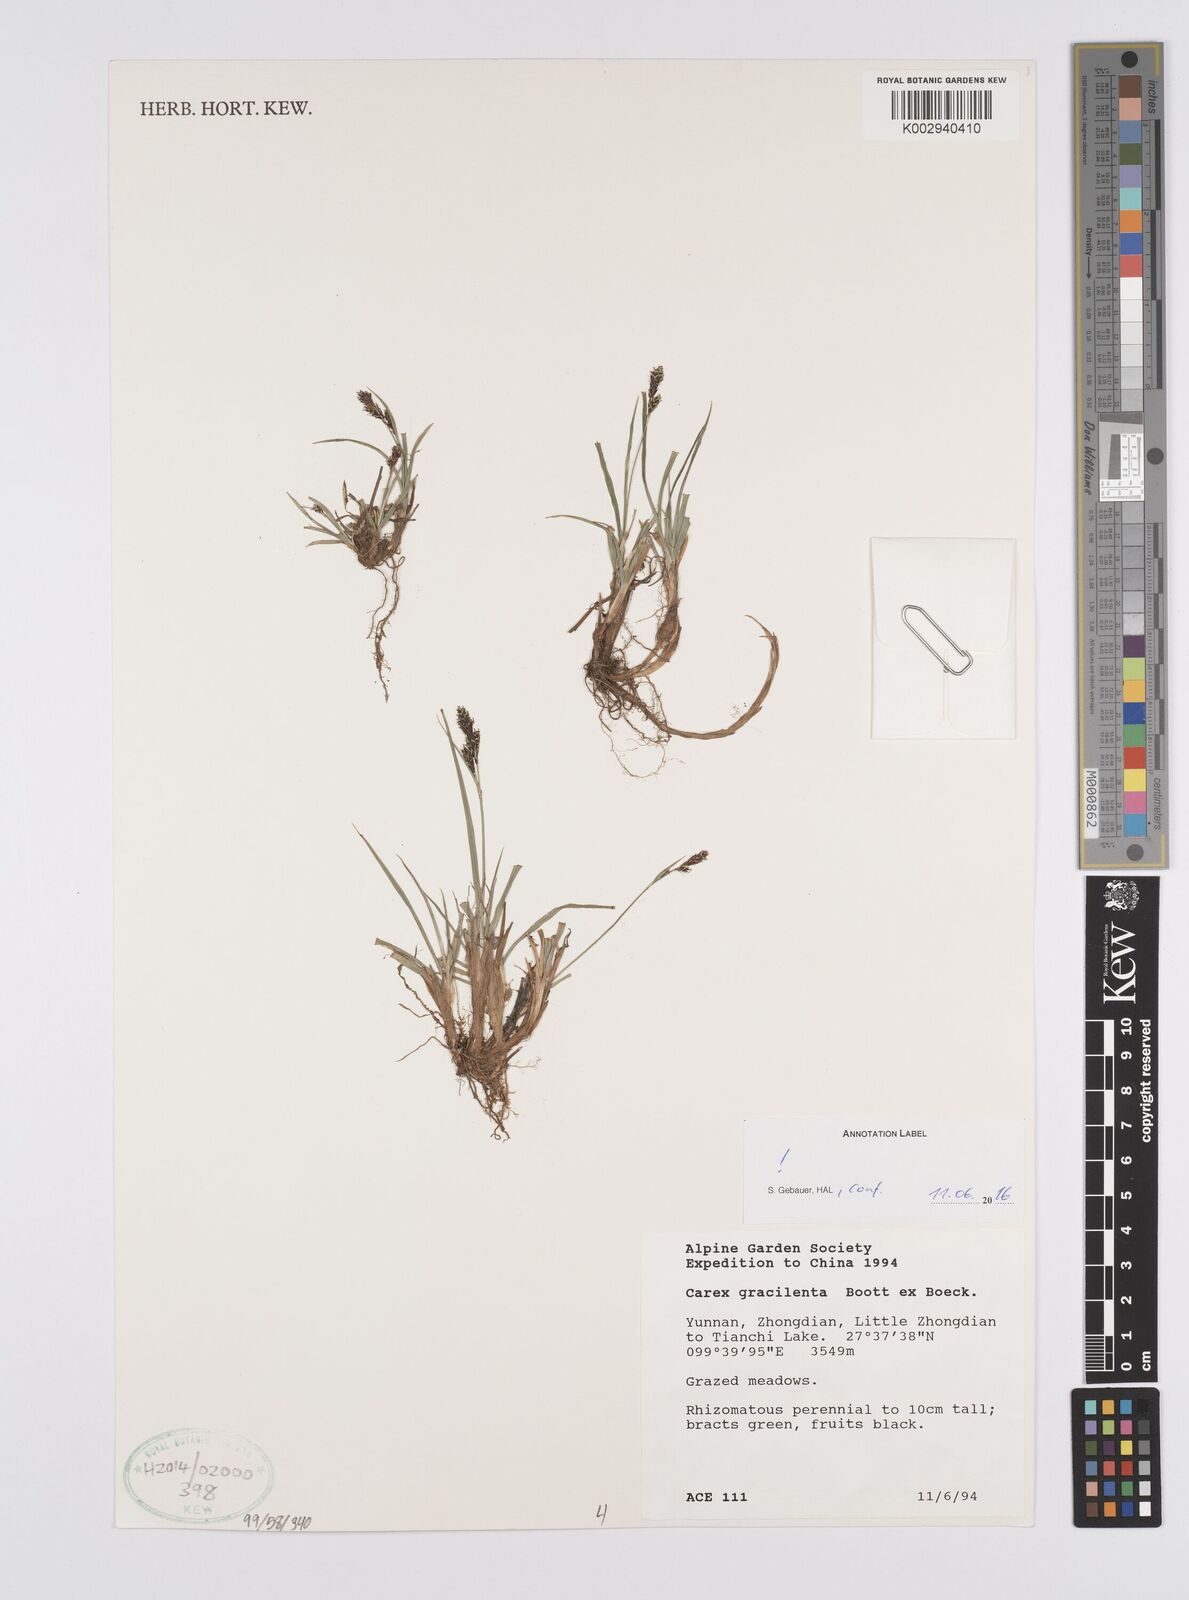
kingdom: Plantae
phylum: Tracheophyta
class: Liliopsida
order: Poales
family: Cyperaceae
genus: Carex
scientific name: Carex gracilenta
